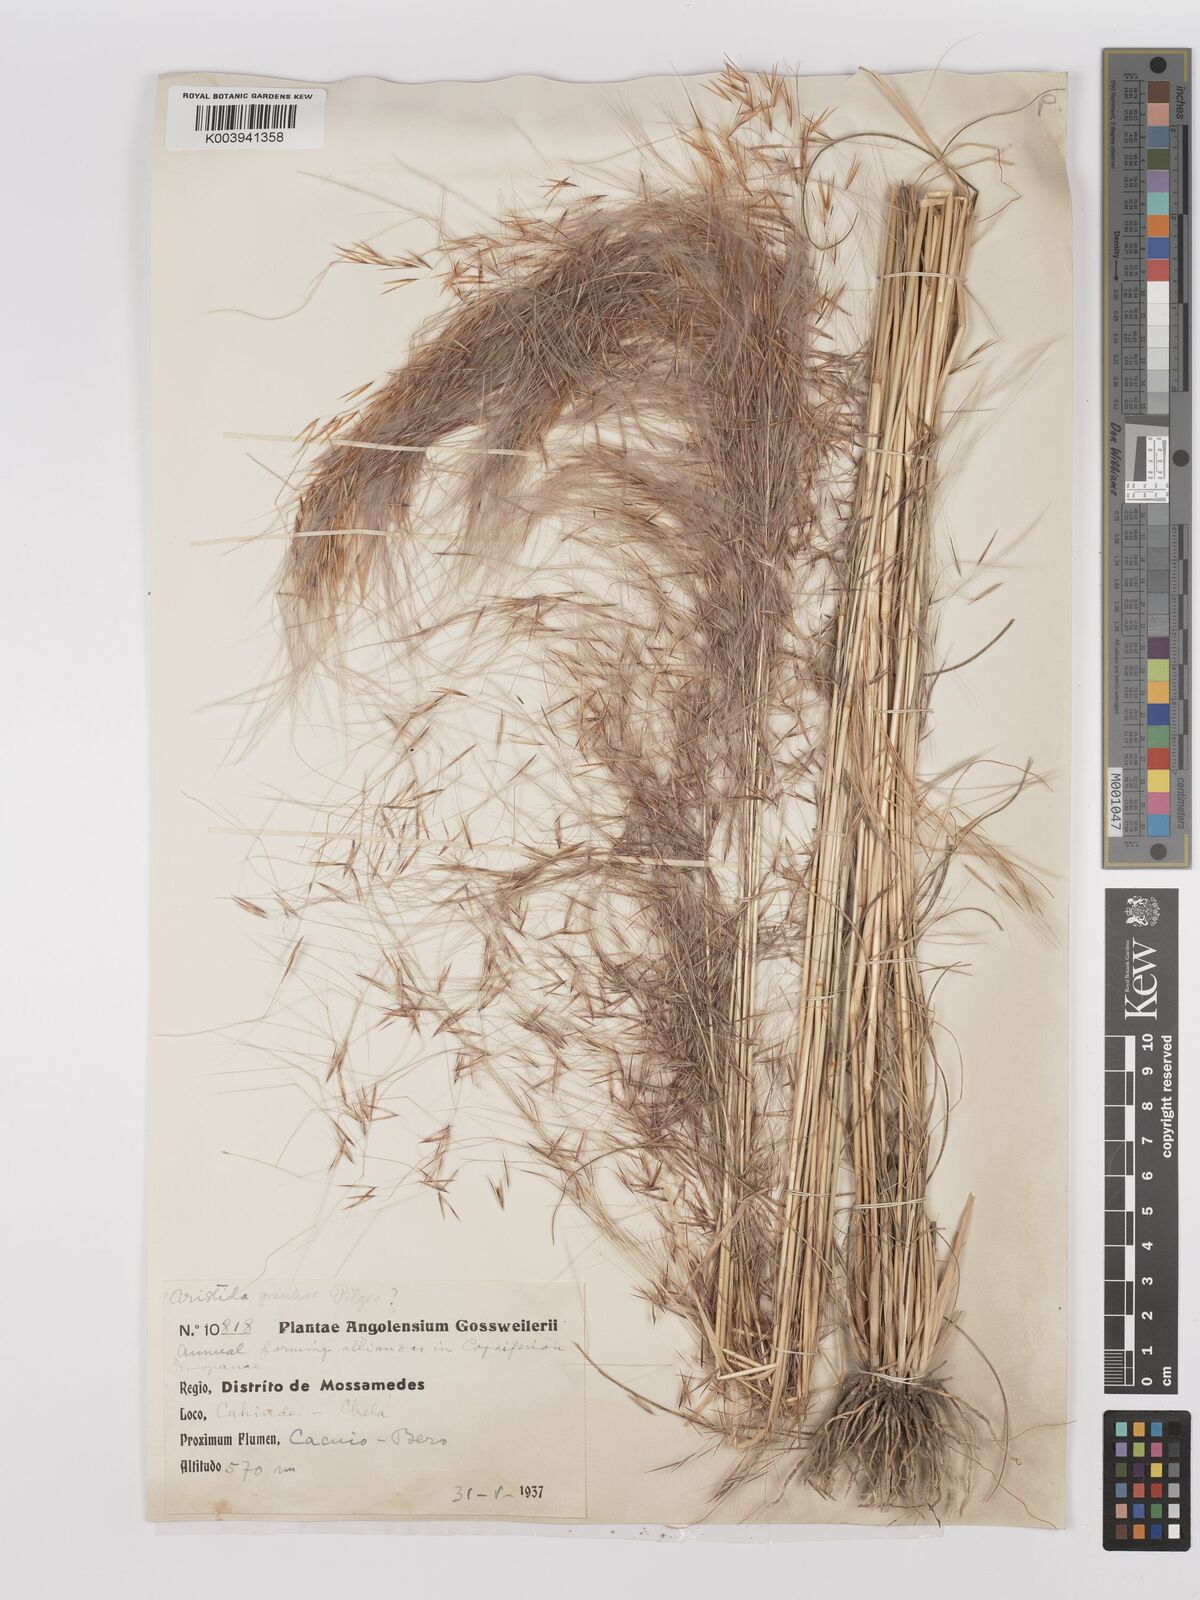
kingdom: Plantae
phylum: Tracheophyta
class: Liliopsida
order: Poales
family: Poaceae
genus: Stipagrostis
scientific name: Stipagrostis hirtigluma
